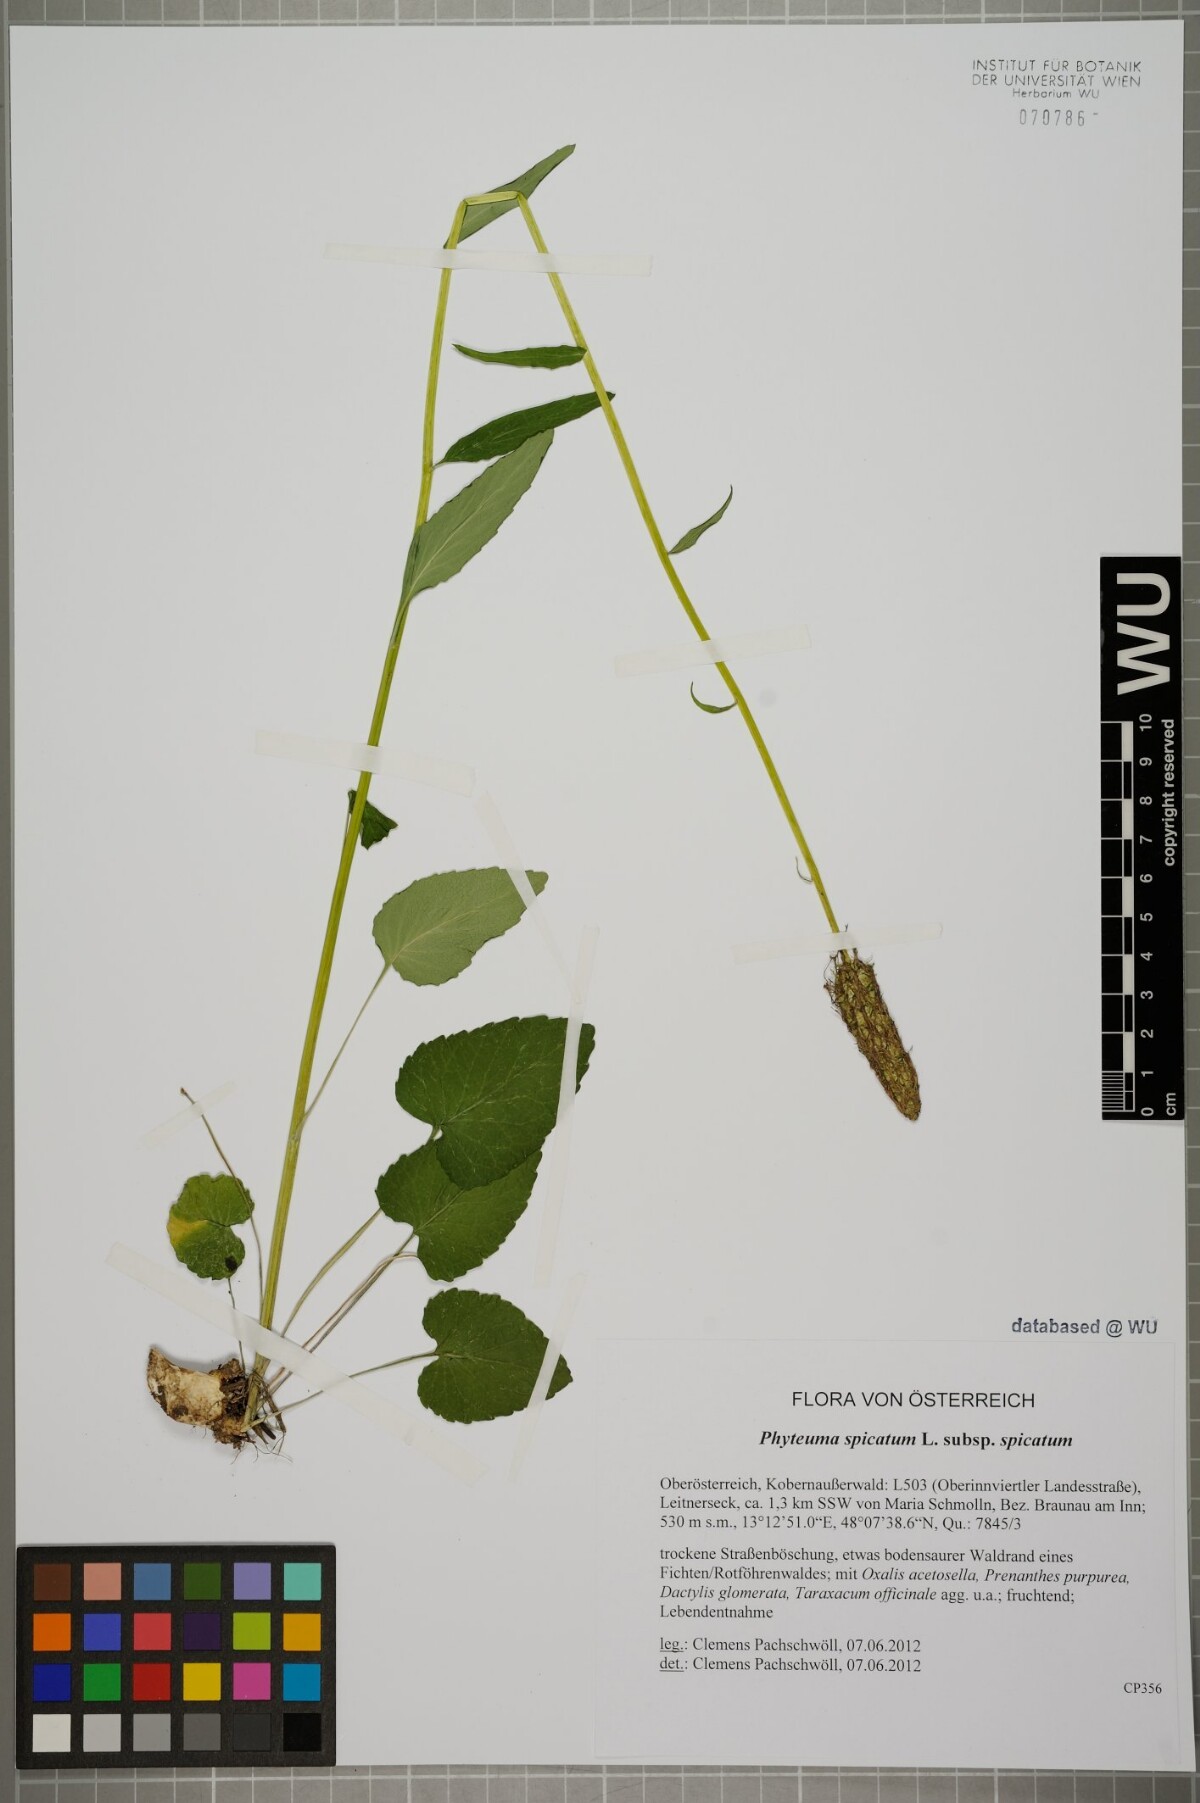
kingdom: Plantae
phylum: Tracheophyta
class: Magnoliopsida
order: Asterales
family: Campanulaceae
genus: Phyteuma
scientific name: Phyteuma spicatum
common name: Spiked rampion
